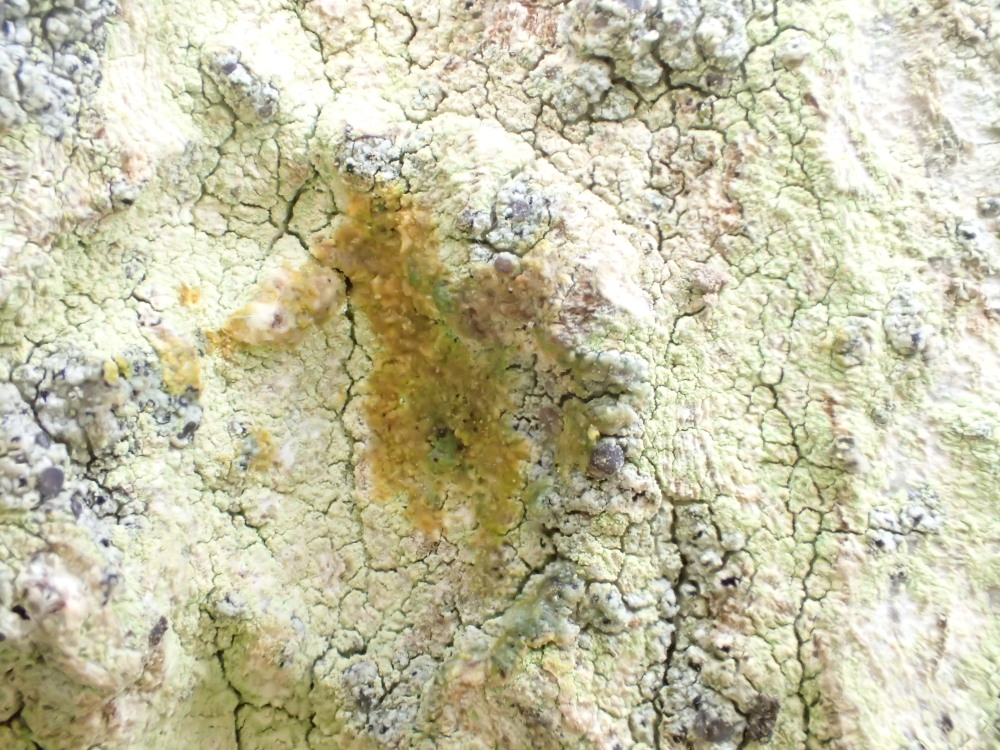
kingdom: Fungi
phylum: Ascomycota
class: Lecanoromycetes
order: Lecanorales
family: Lecanoraceae
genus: Lecanora
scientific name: Lecanora expallens
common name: bleggul kantskivelav
